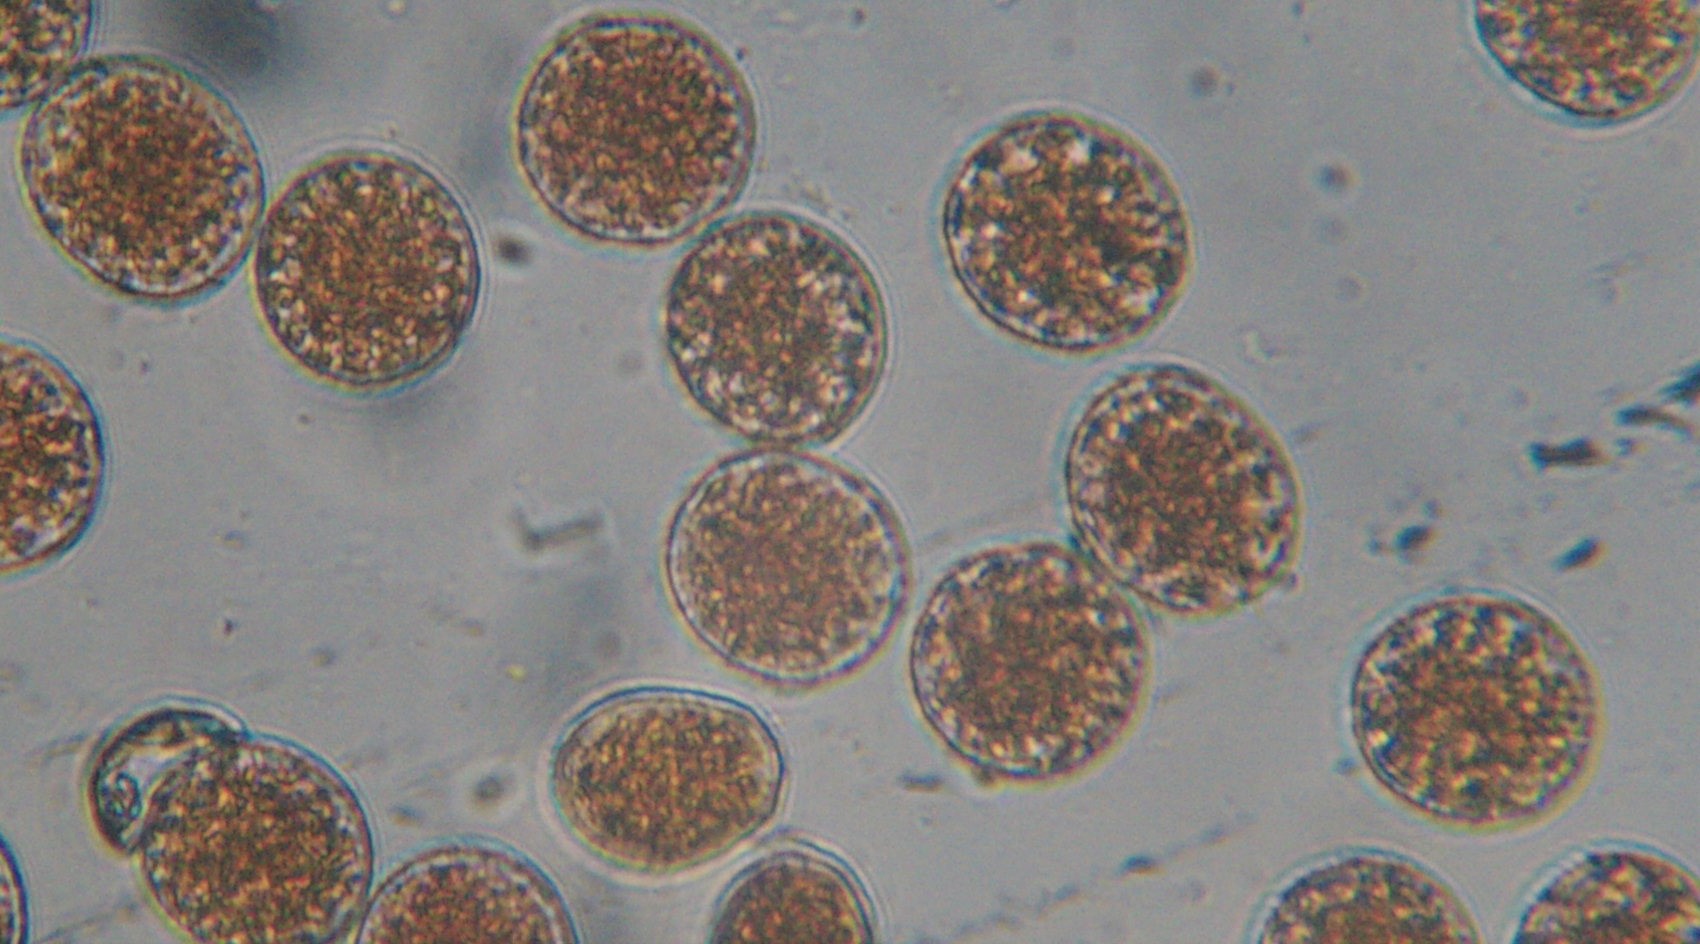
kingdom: Fungi
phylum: Basidiomycota
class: Pucciniomycetes
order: Pucciniales
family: Pucciniaceae
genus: Puccinia
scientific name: Puccinia porri
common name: Allium rust
